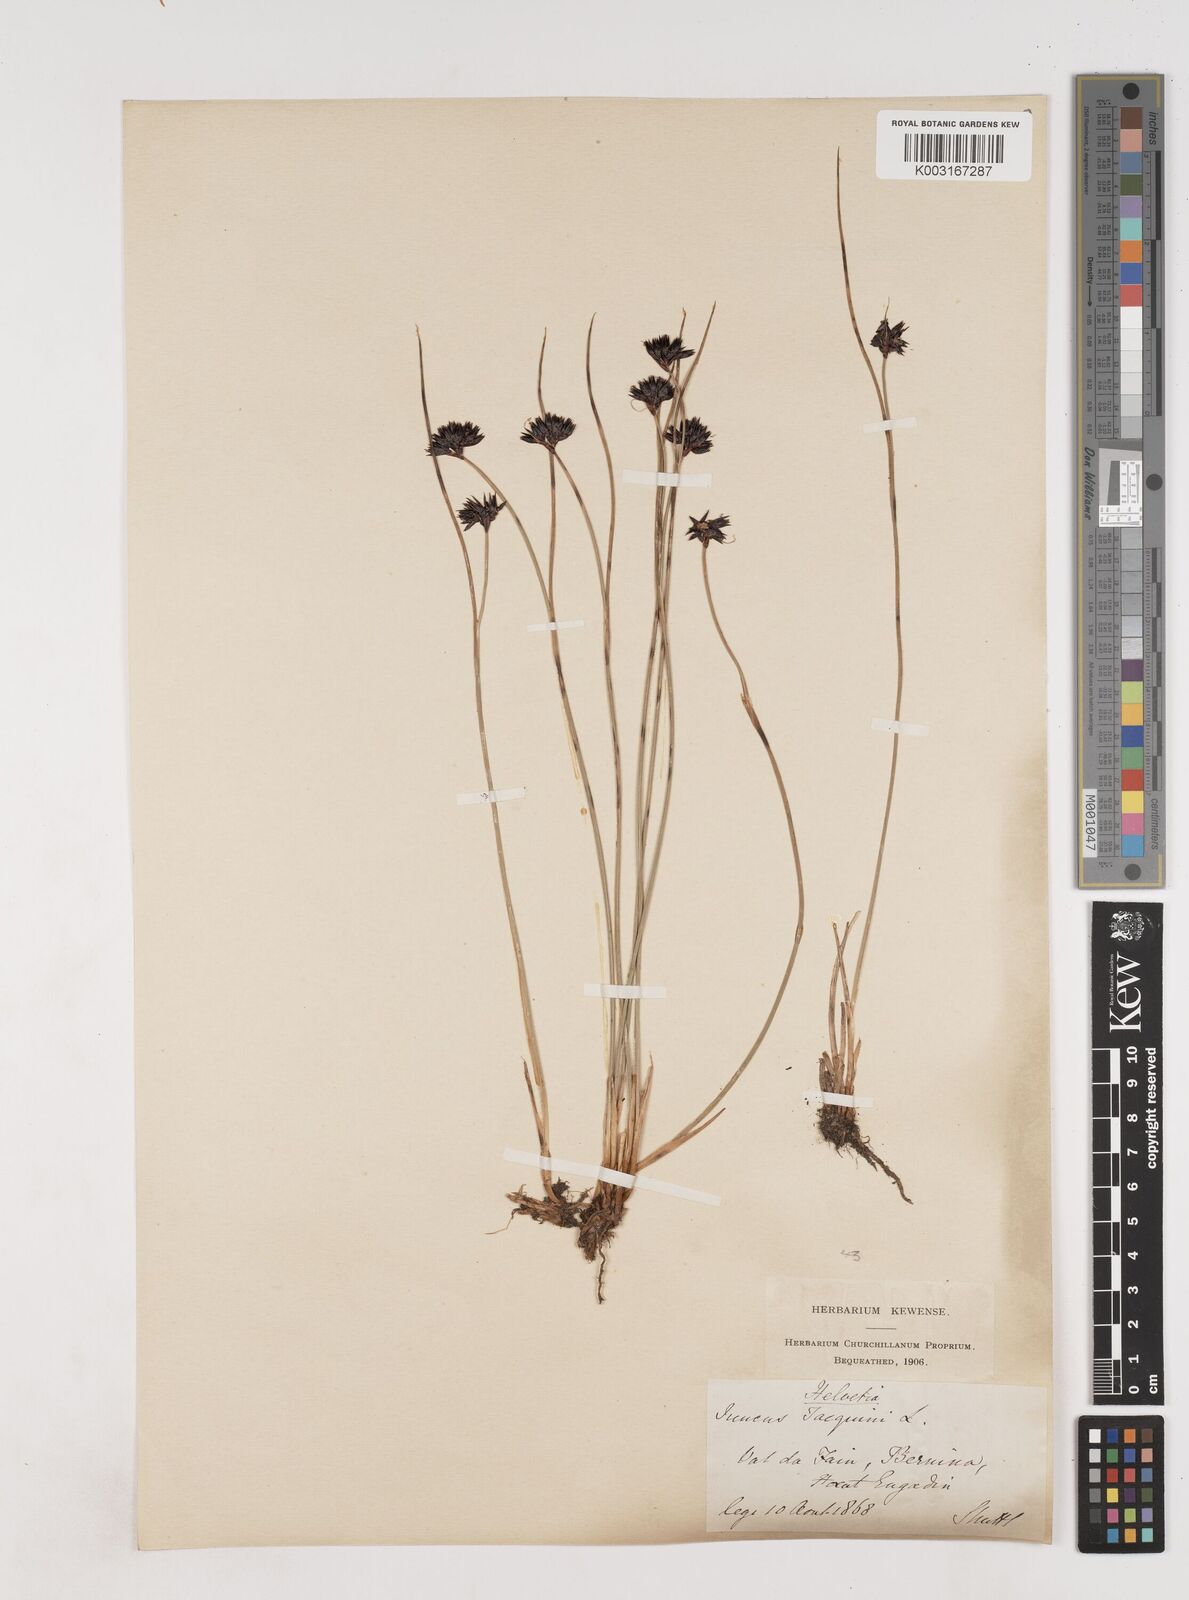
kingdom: Plantae
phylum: Tracheophyta
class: Liliopsida
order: Poales
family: Juncaceae
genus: Juncus
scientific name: Juncus jacquinii
